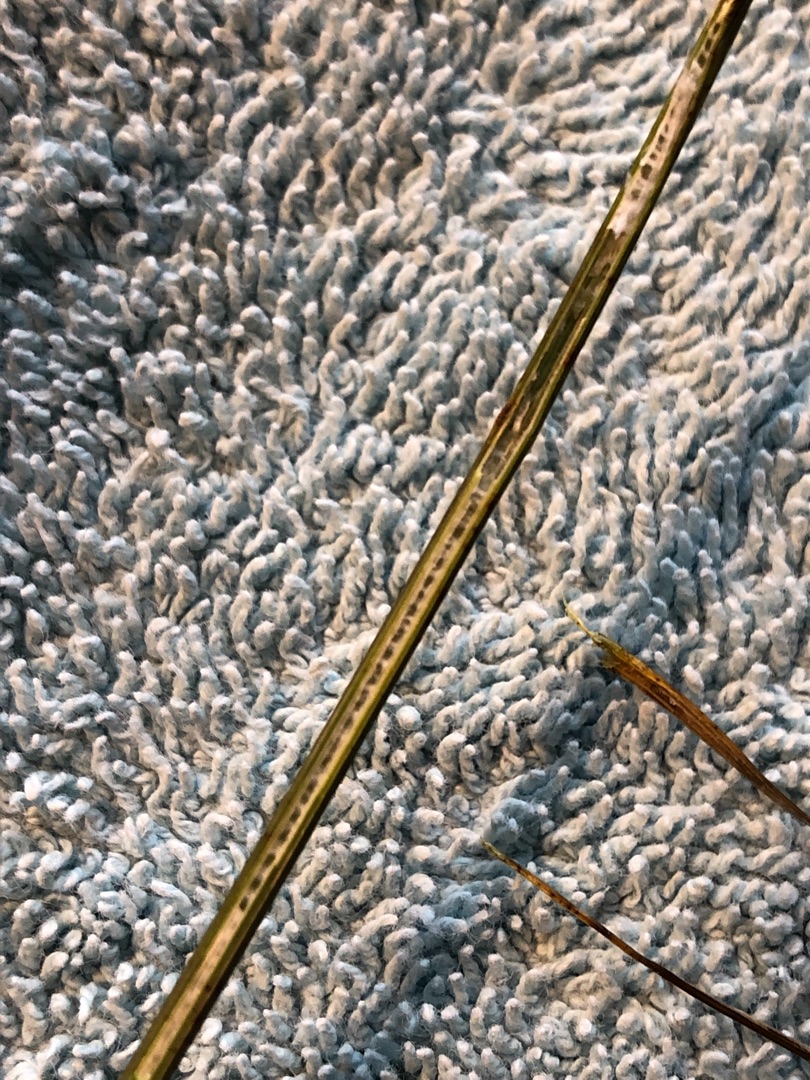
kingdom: Plantae
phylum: Tracheophyta
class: Liliopsida
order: Poales
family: Juncaceae
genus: Juncus
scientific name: Juncus inflexus
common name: Blågrå siv
